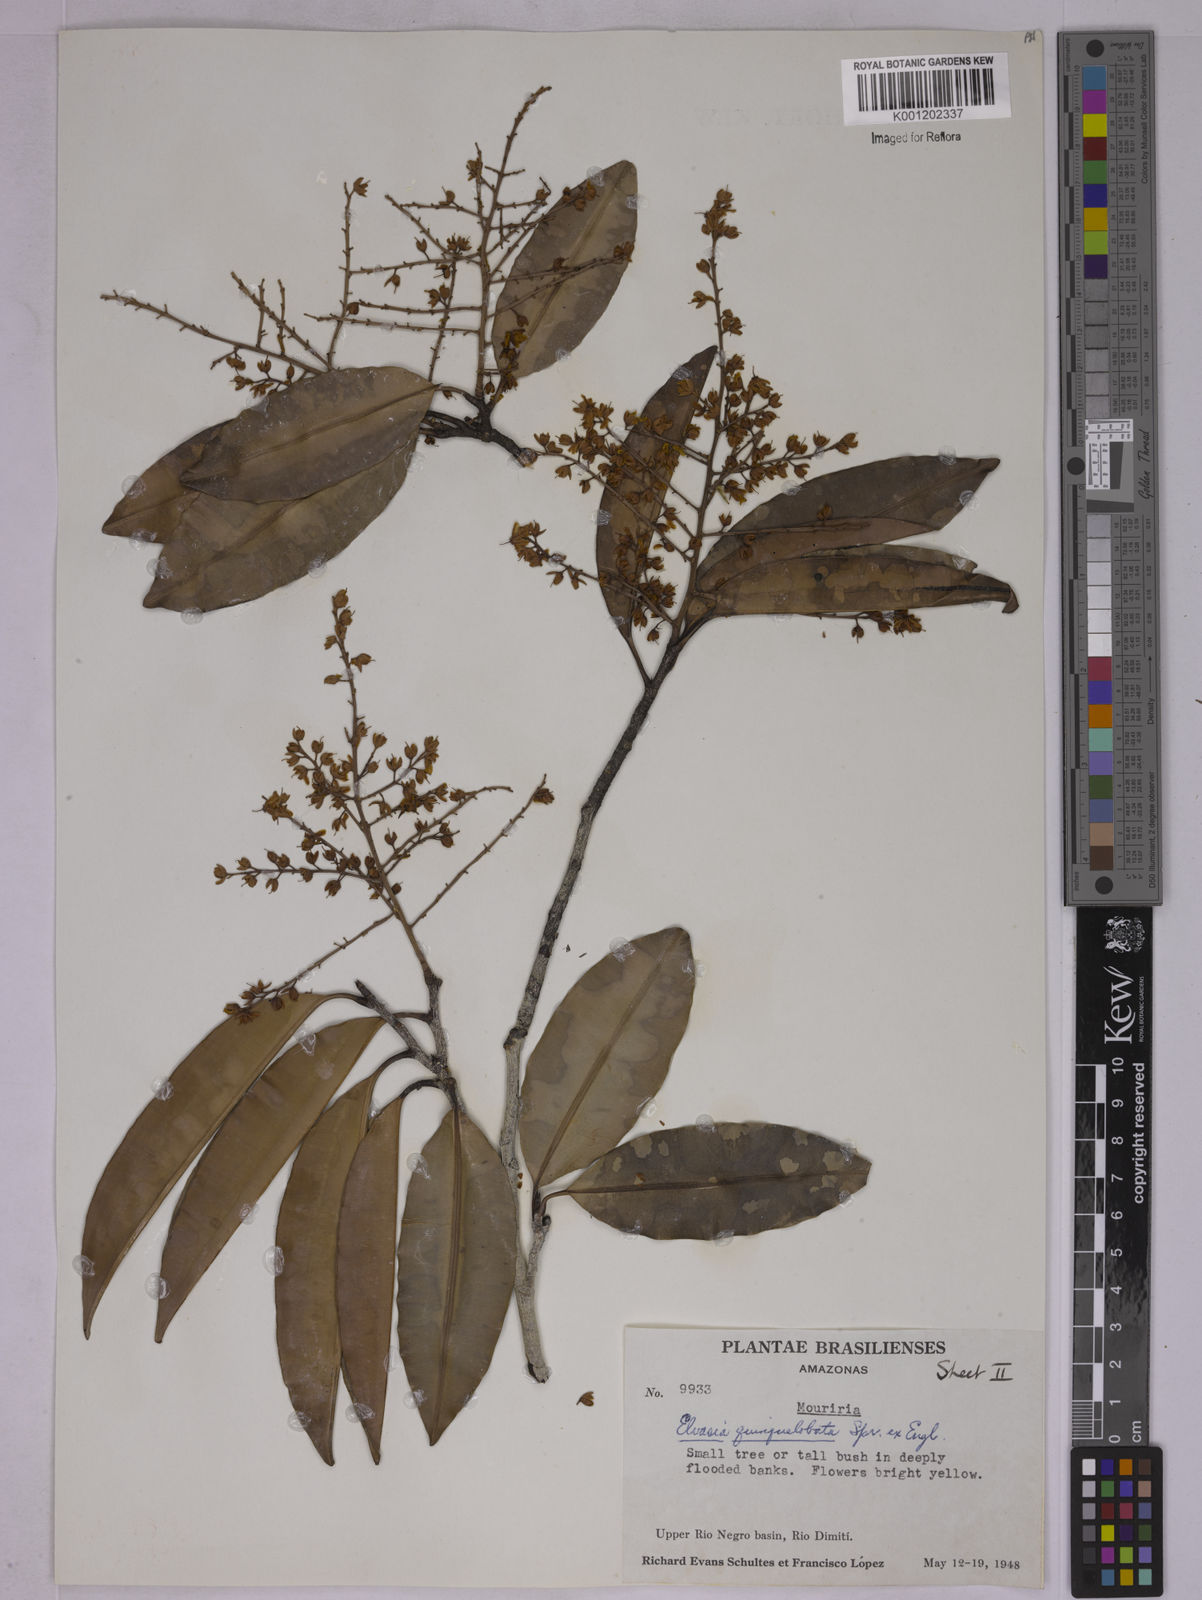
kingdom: Plantae
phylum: Tracheophyta
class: Magnoliopsida
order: Malpighiales
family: Ochnaceae
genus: Elvasia
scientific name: Elvasia quinqueloba
